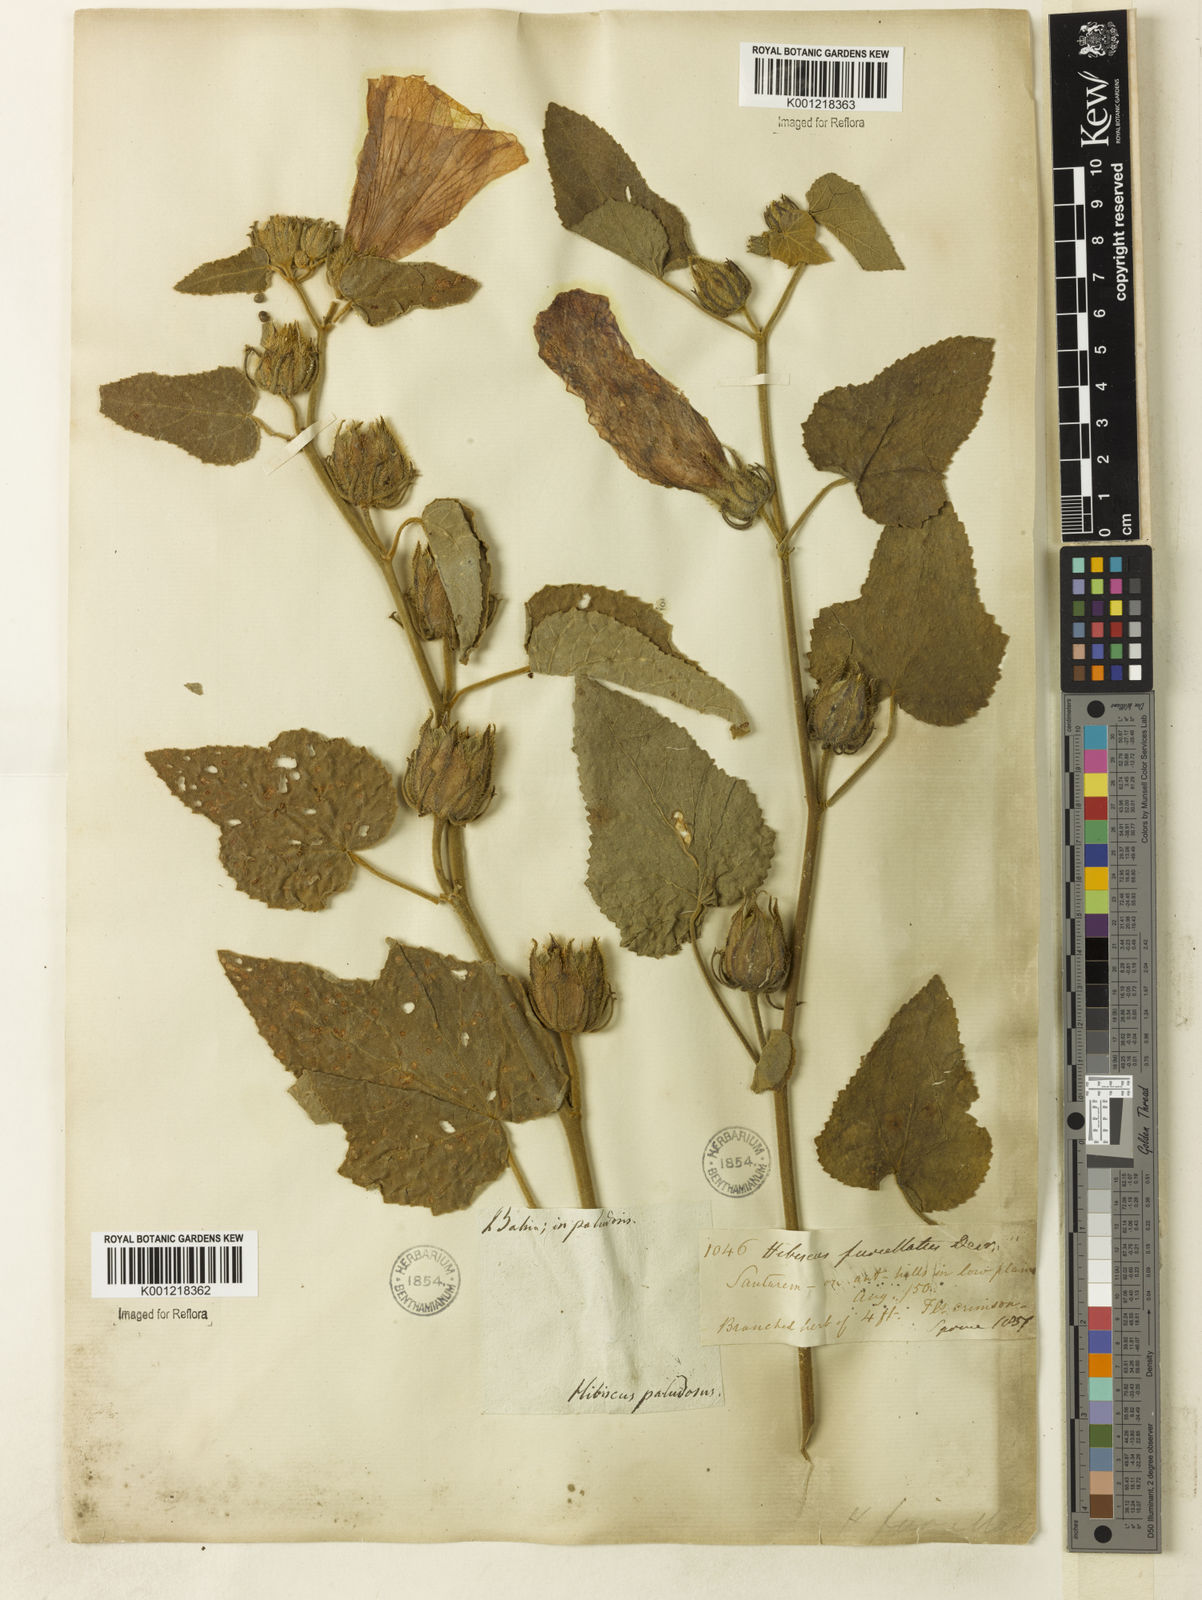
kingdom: Plantae
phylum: Tracheophyta
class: Magnoliopsida
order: Malvales
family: Malvaceae
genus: Hibiscus
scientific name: Hibiscus furcellatus
